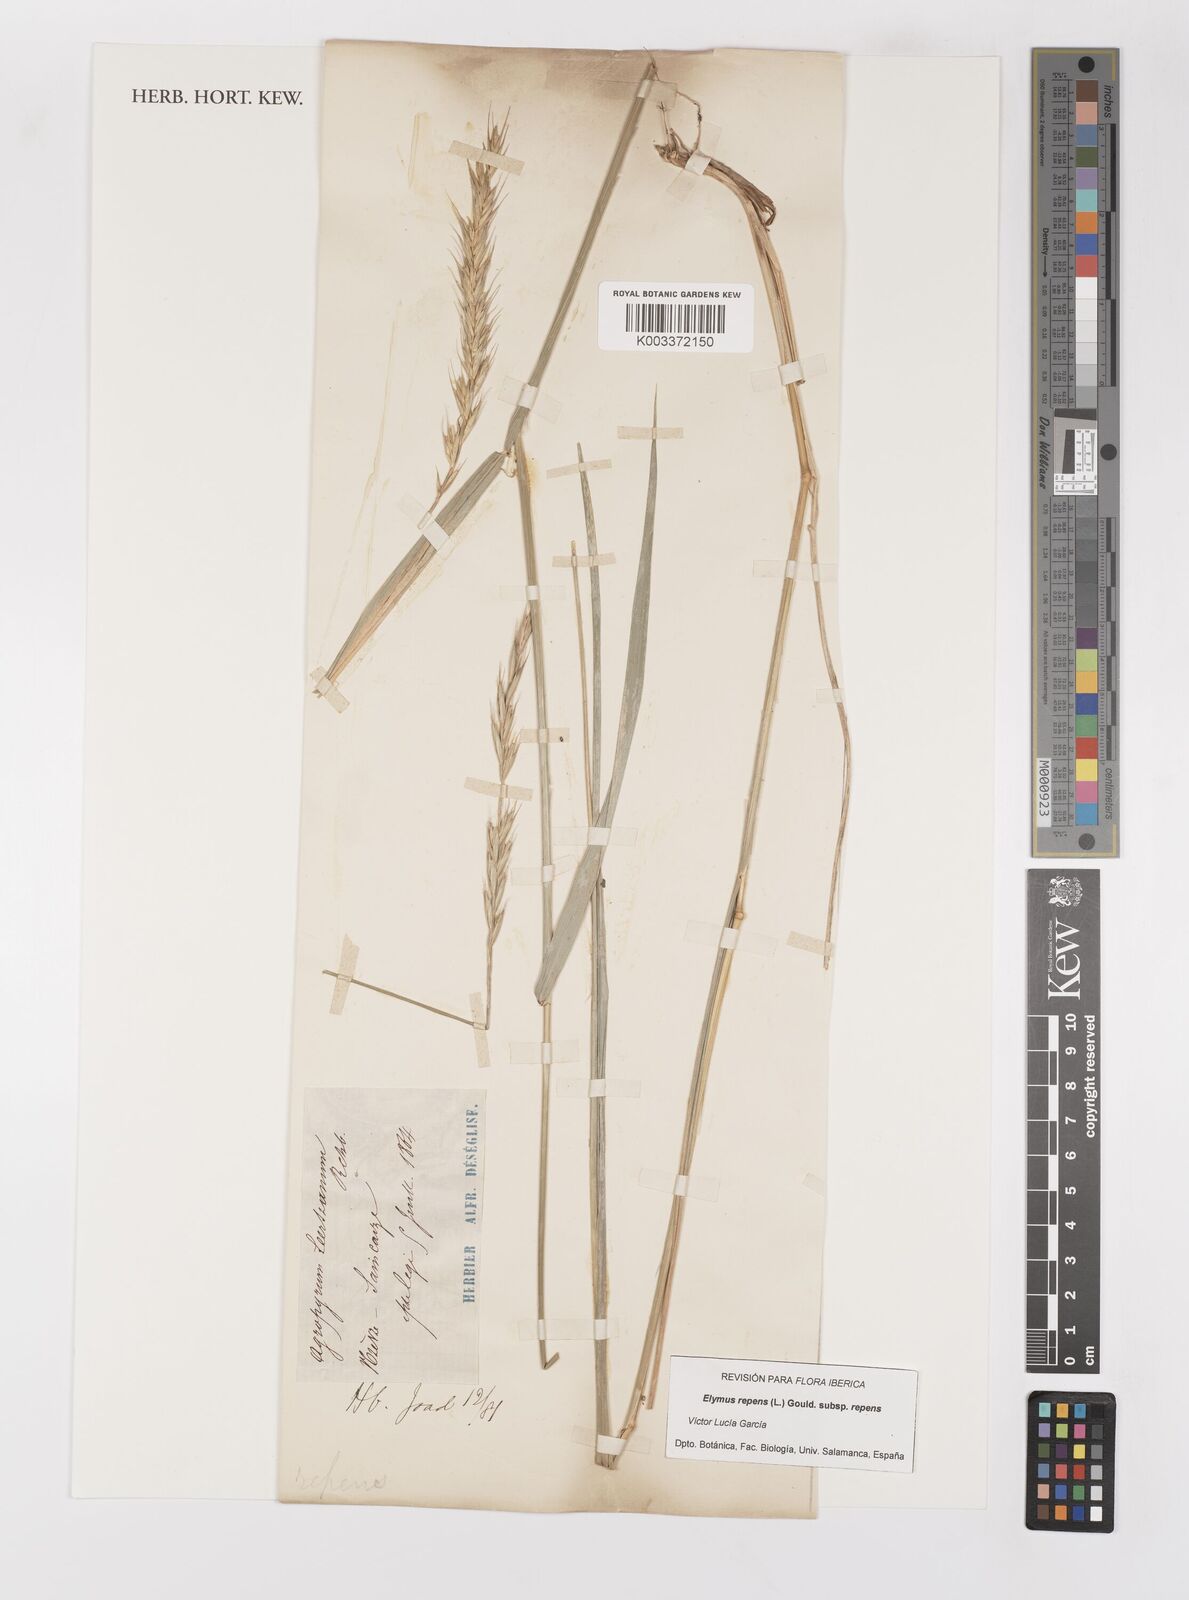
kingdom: Plantae
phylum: Tracheophyta
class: Liliopsida
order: Poales
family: Poaceae
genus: Elymus
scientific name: Elymus repens
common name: Quackgrass
